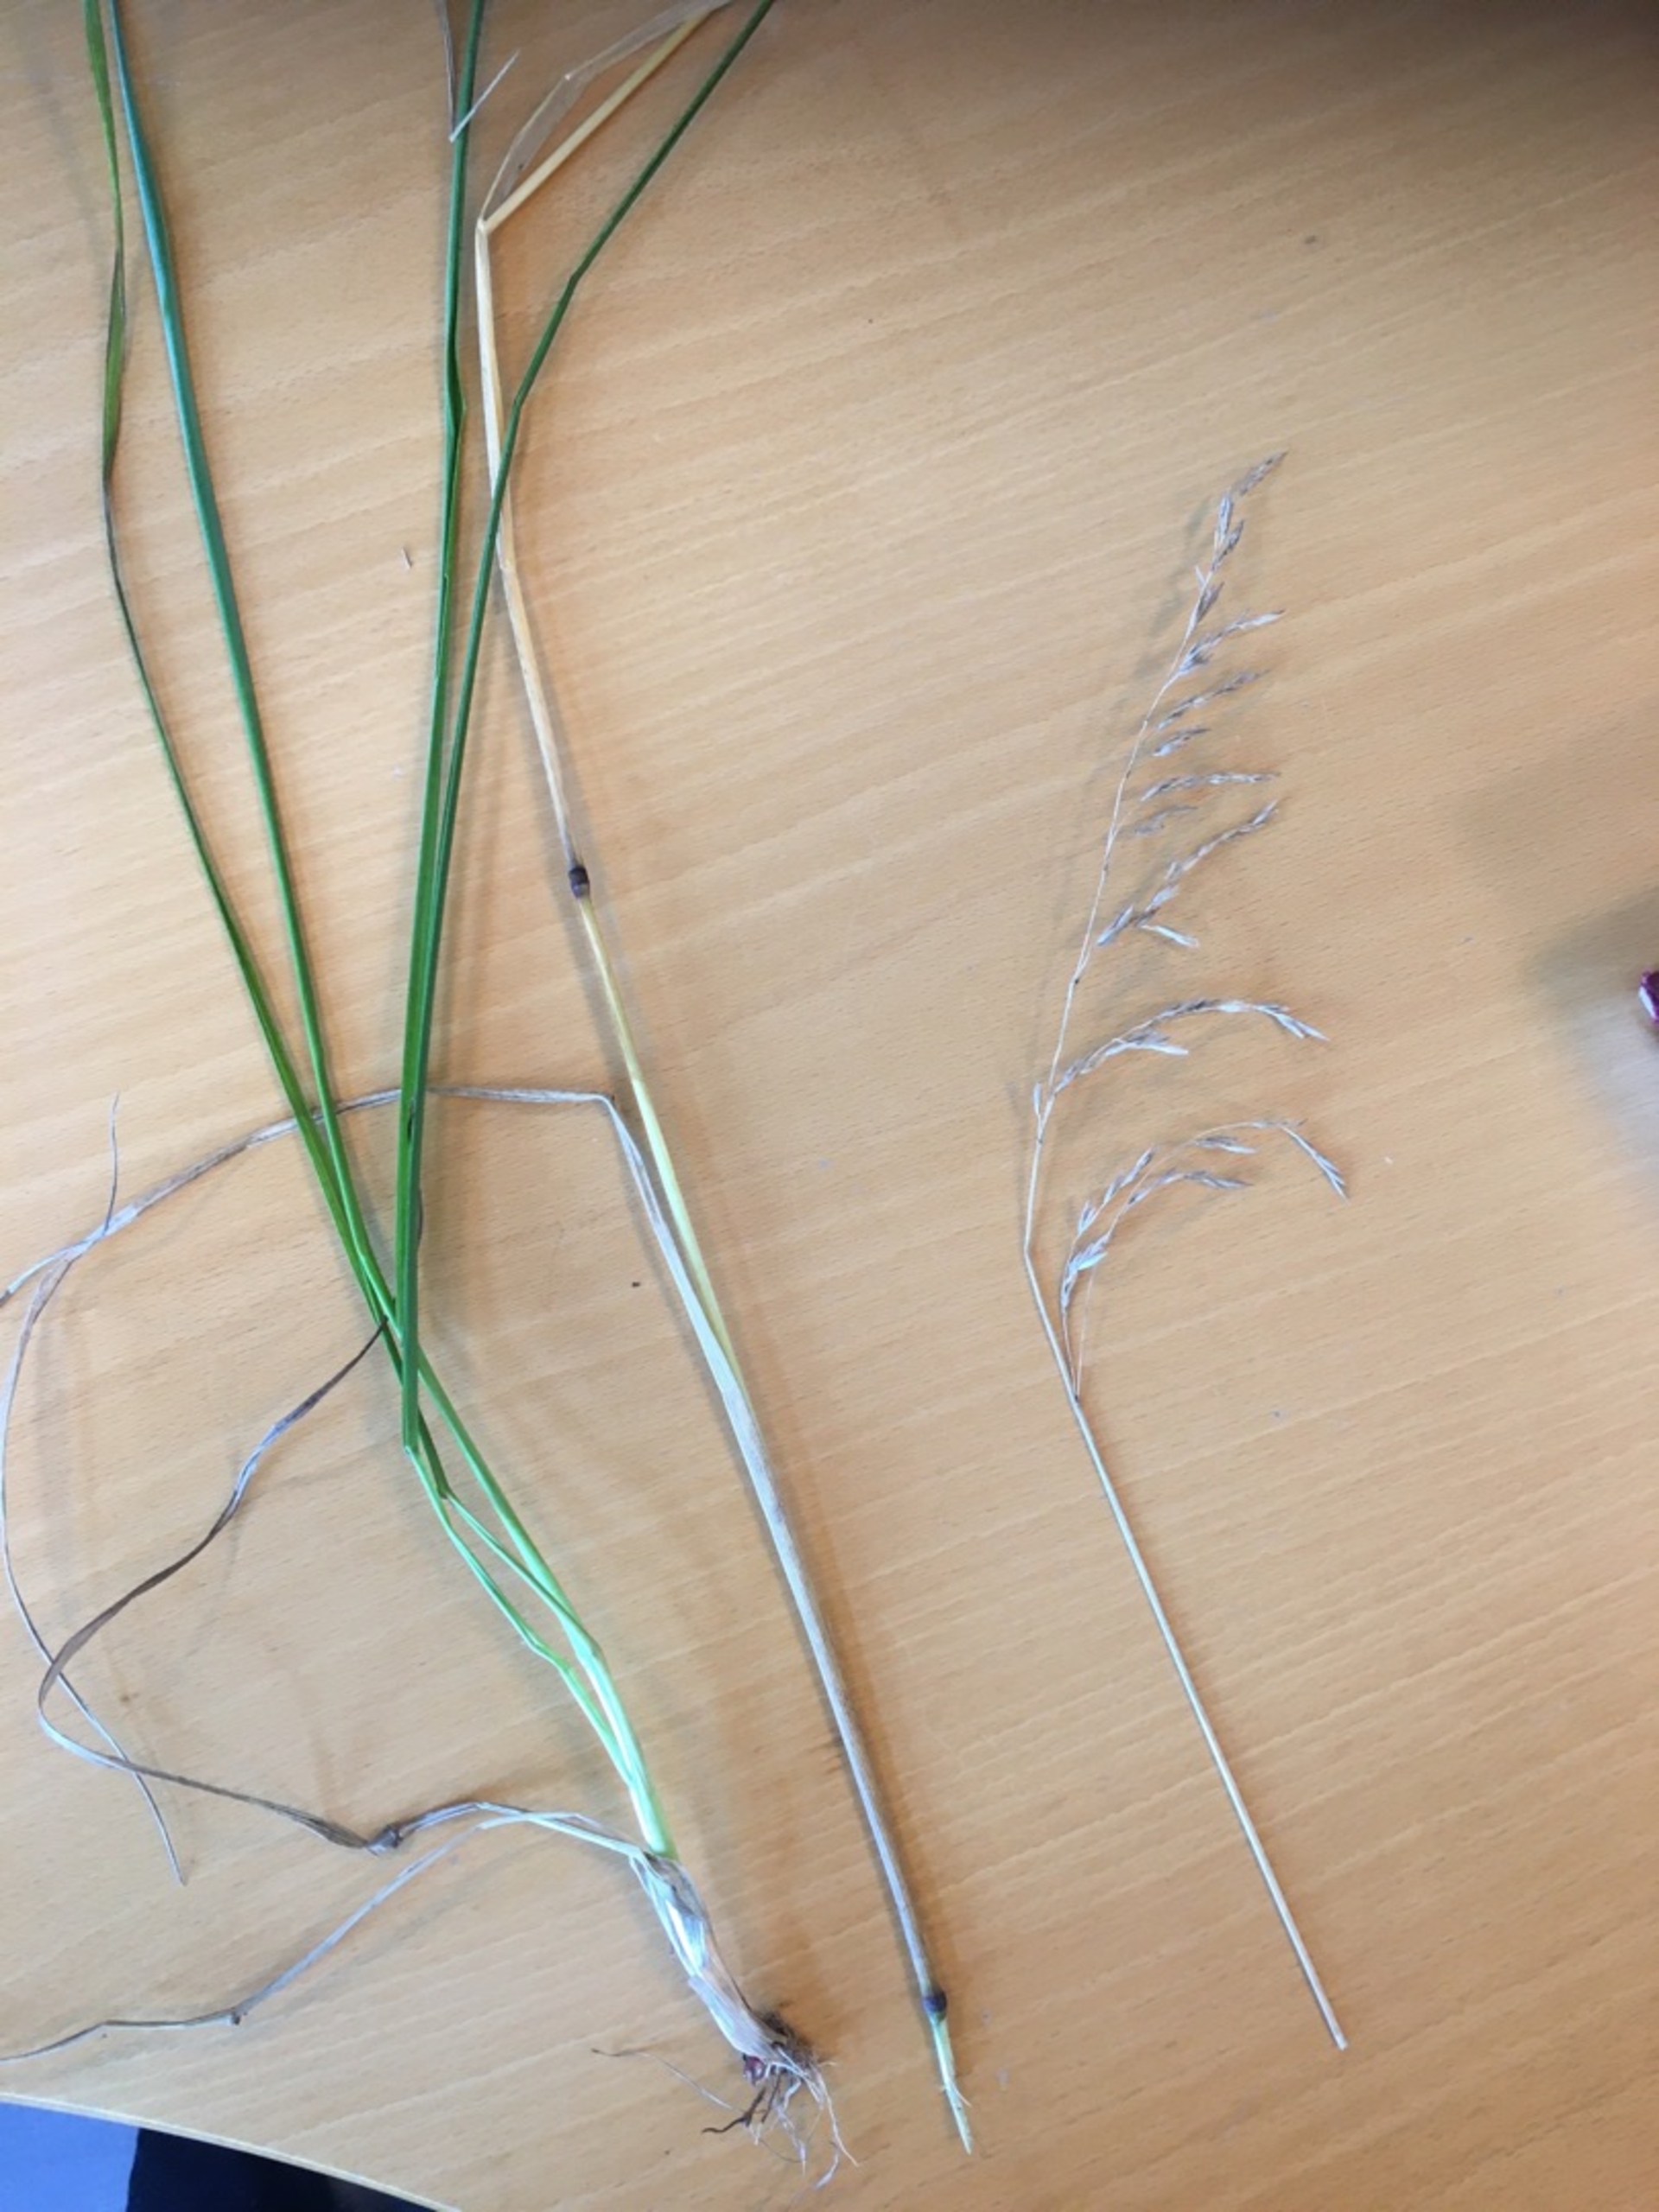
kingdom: Plantae
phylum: Tracheophyta
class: Liliopsida
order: Poales
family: Poaceae
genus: Lolium
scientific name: Lolium pratense
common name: Eng-svingel
